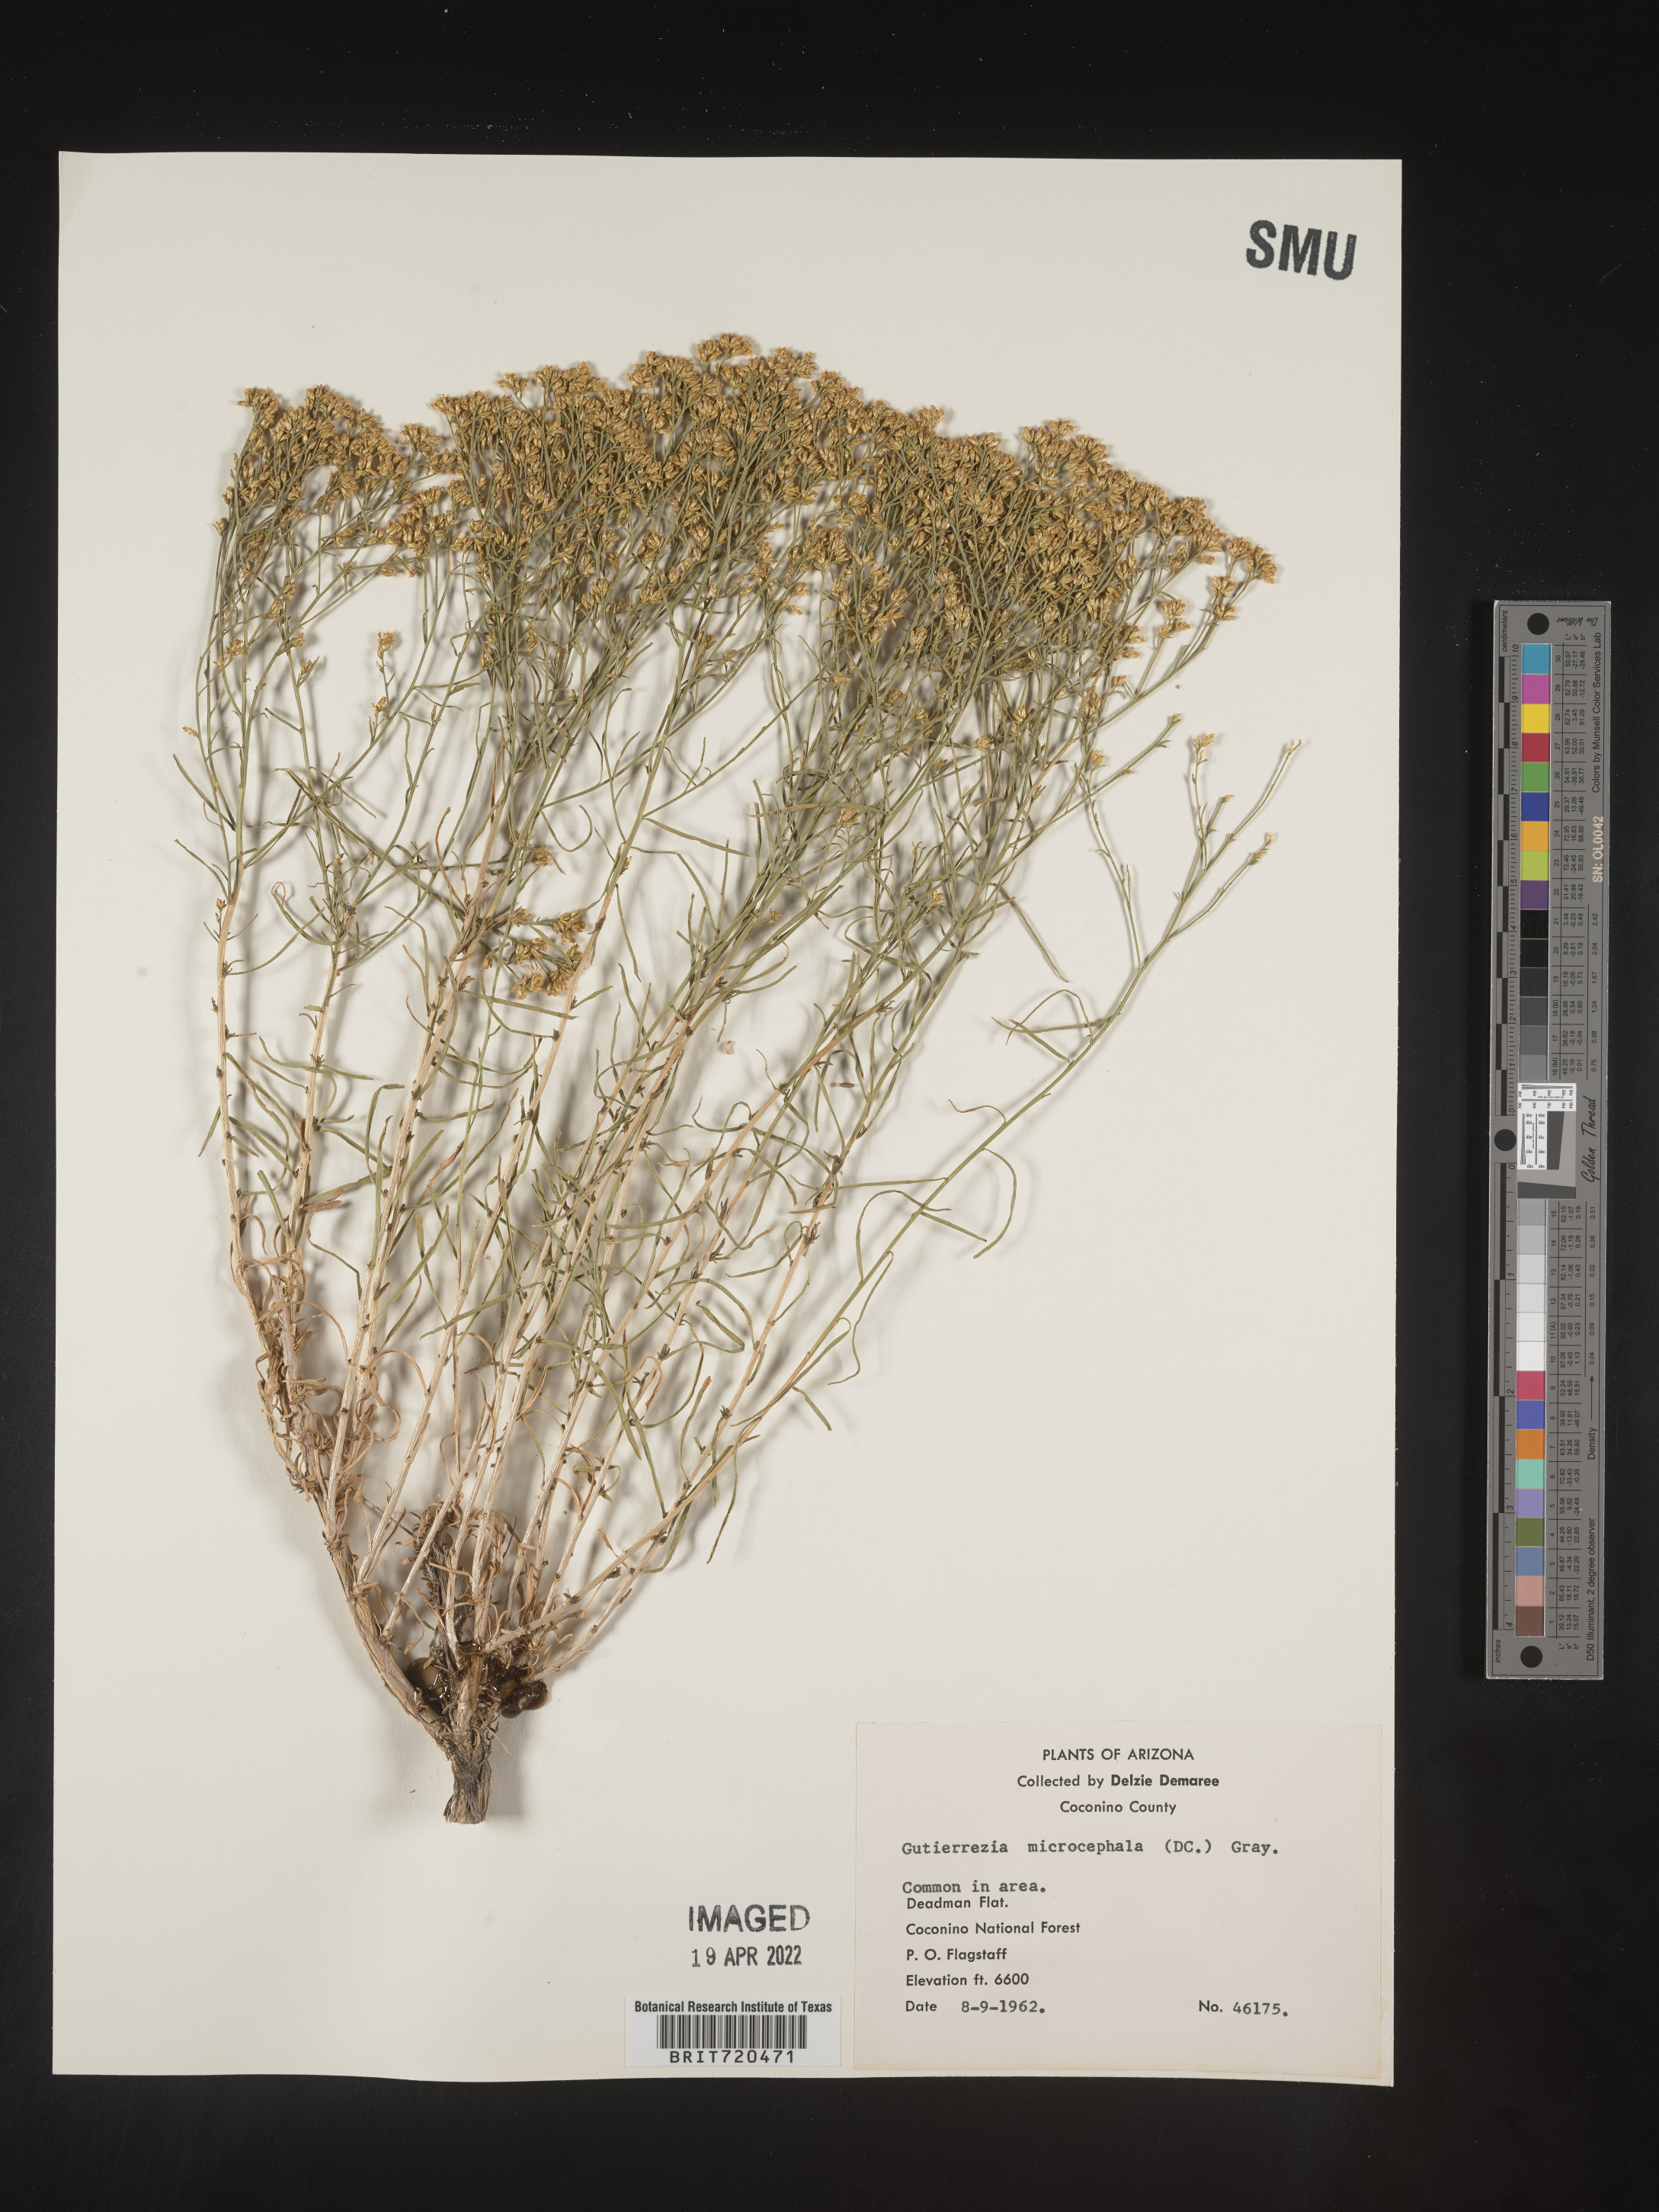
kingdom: Plantae
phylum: Tracheophyta
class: Magnoliopsida
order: Asterales
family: Asteraceae
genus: Gutierrezia
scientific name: Gutierrezia microcephala
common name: Thread snakeweed
